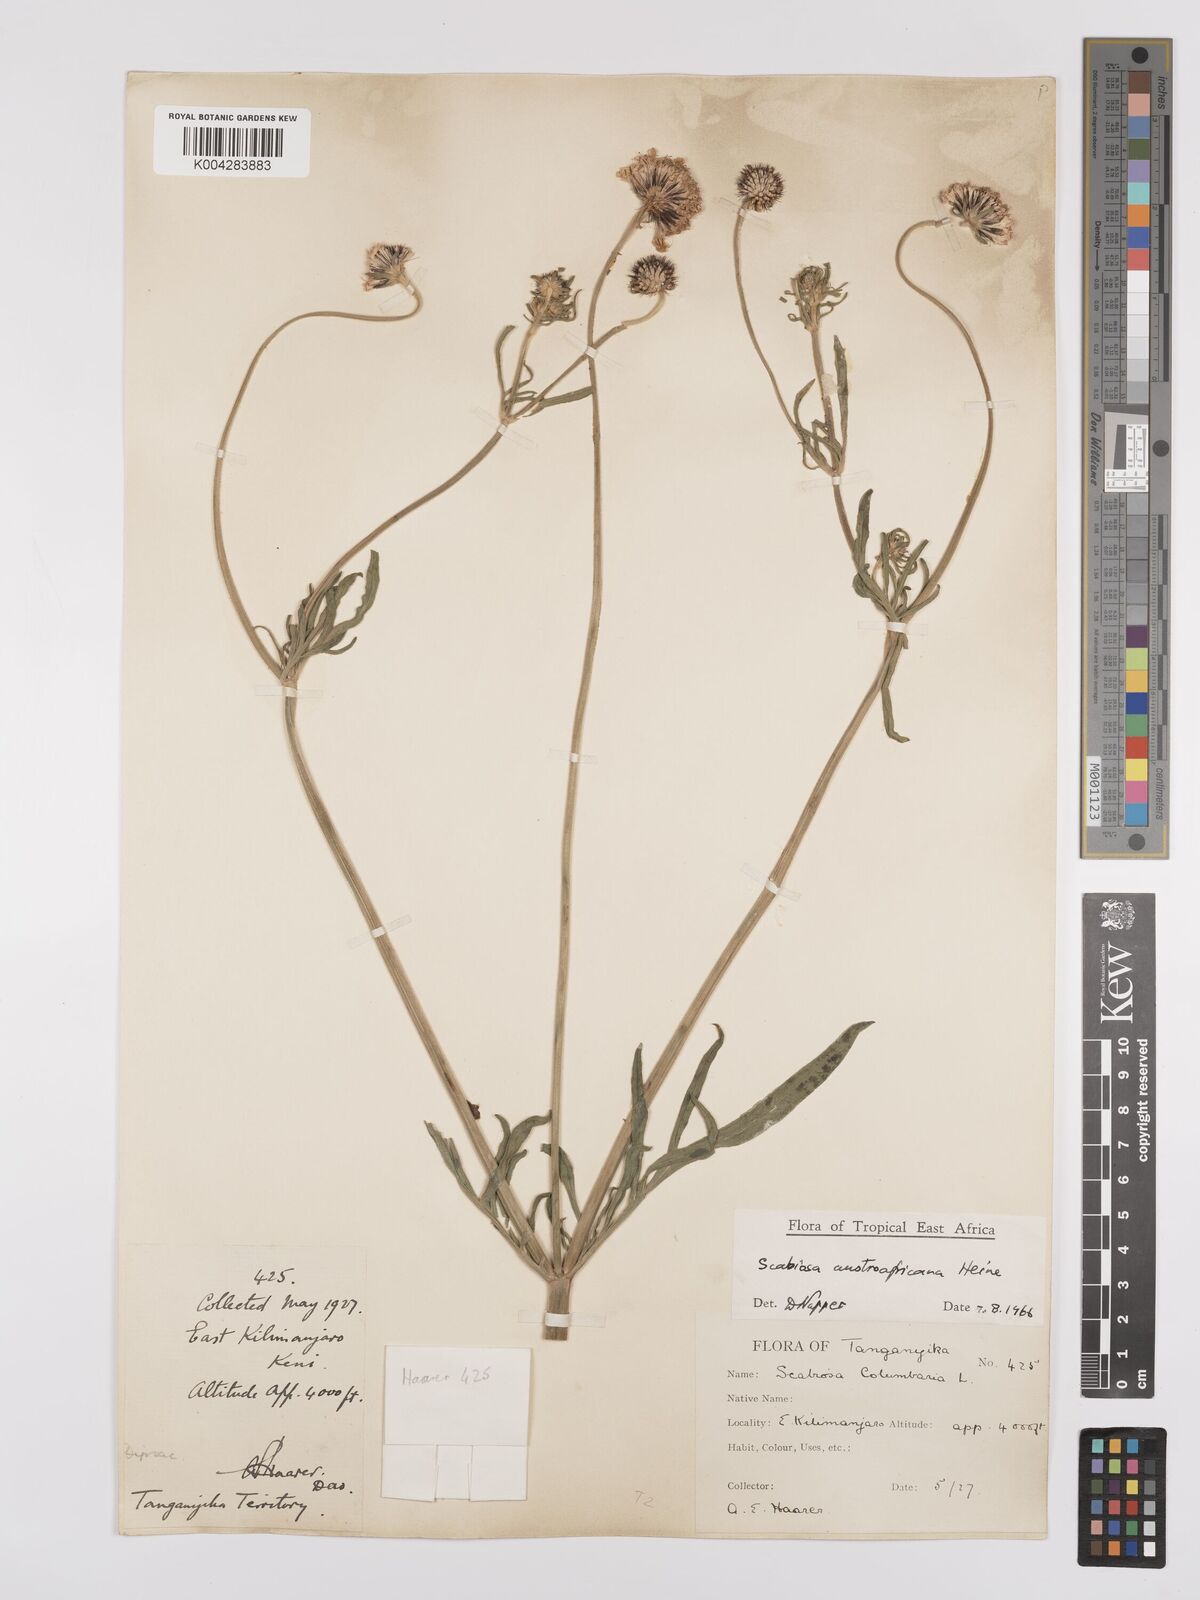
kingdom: Plantae
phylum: Tracheophyta
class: Magnoliopsida
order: Dipsacales
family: Caprifoliaceae
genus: Scabiosa
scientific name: Scabiosa austroafricana
